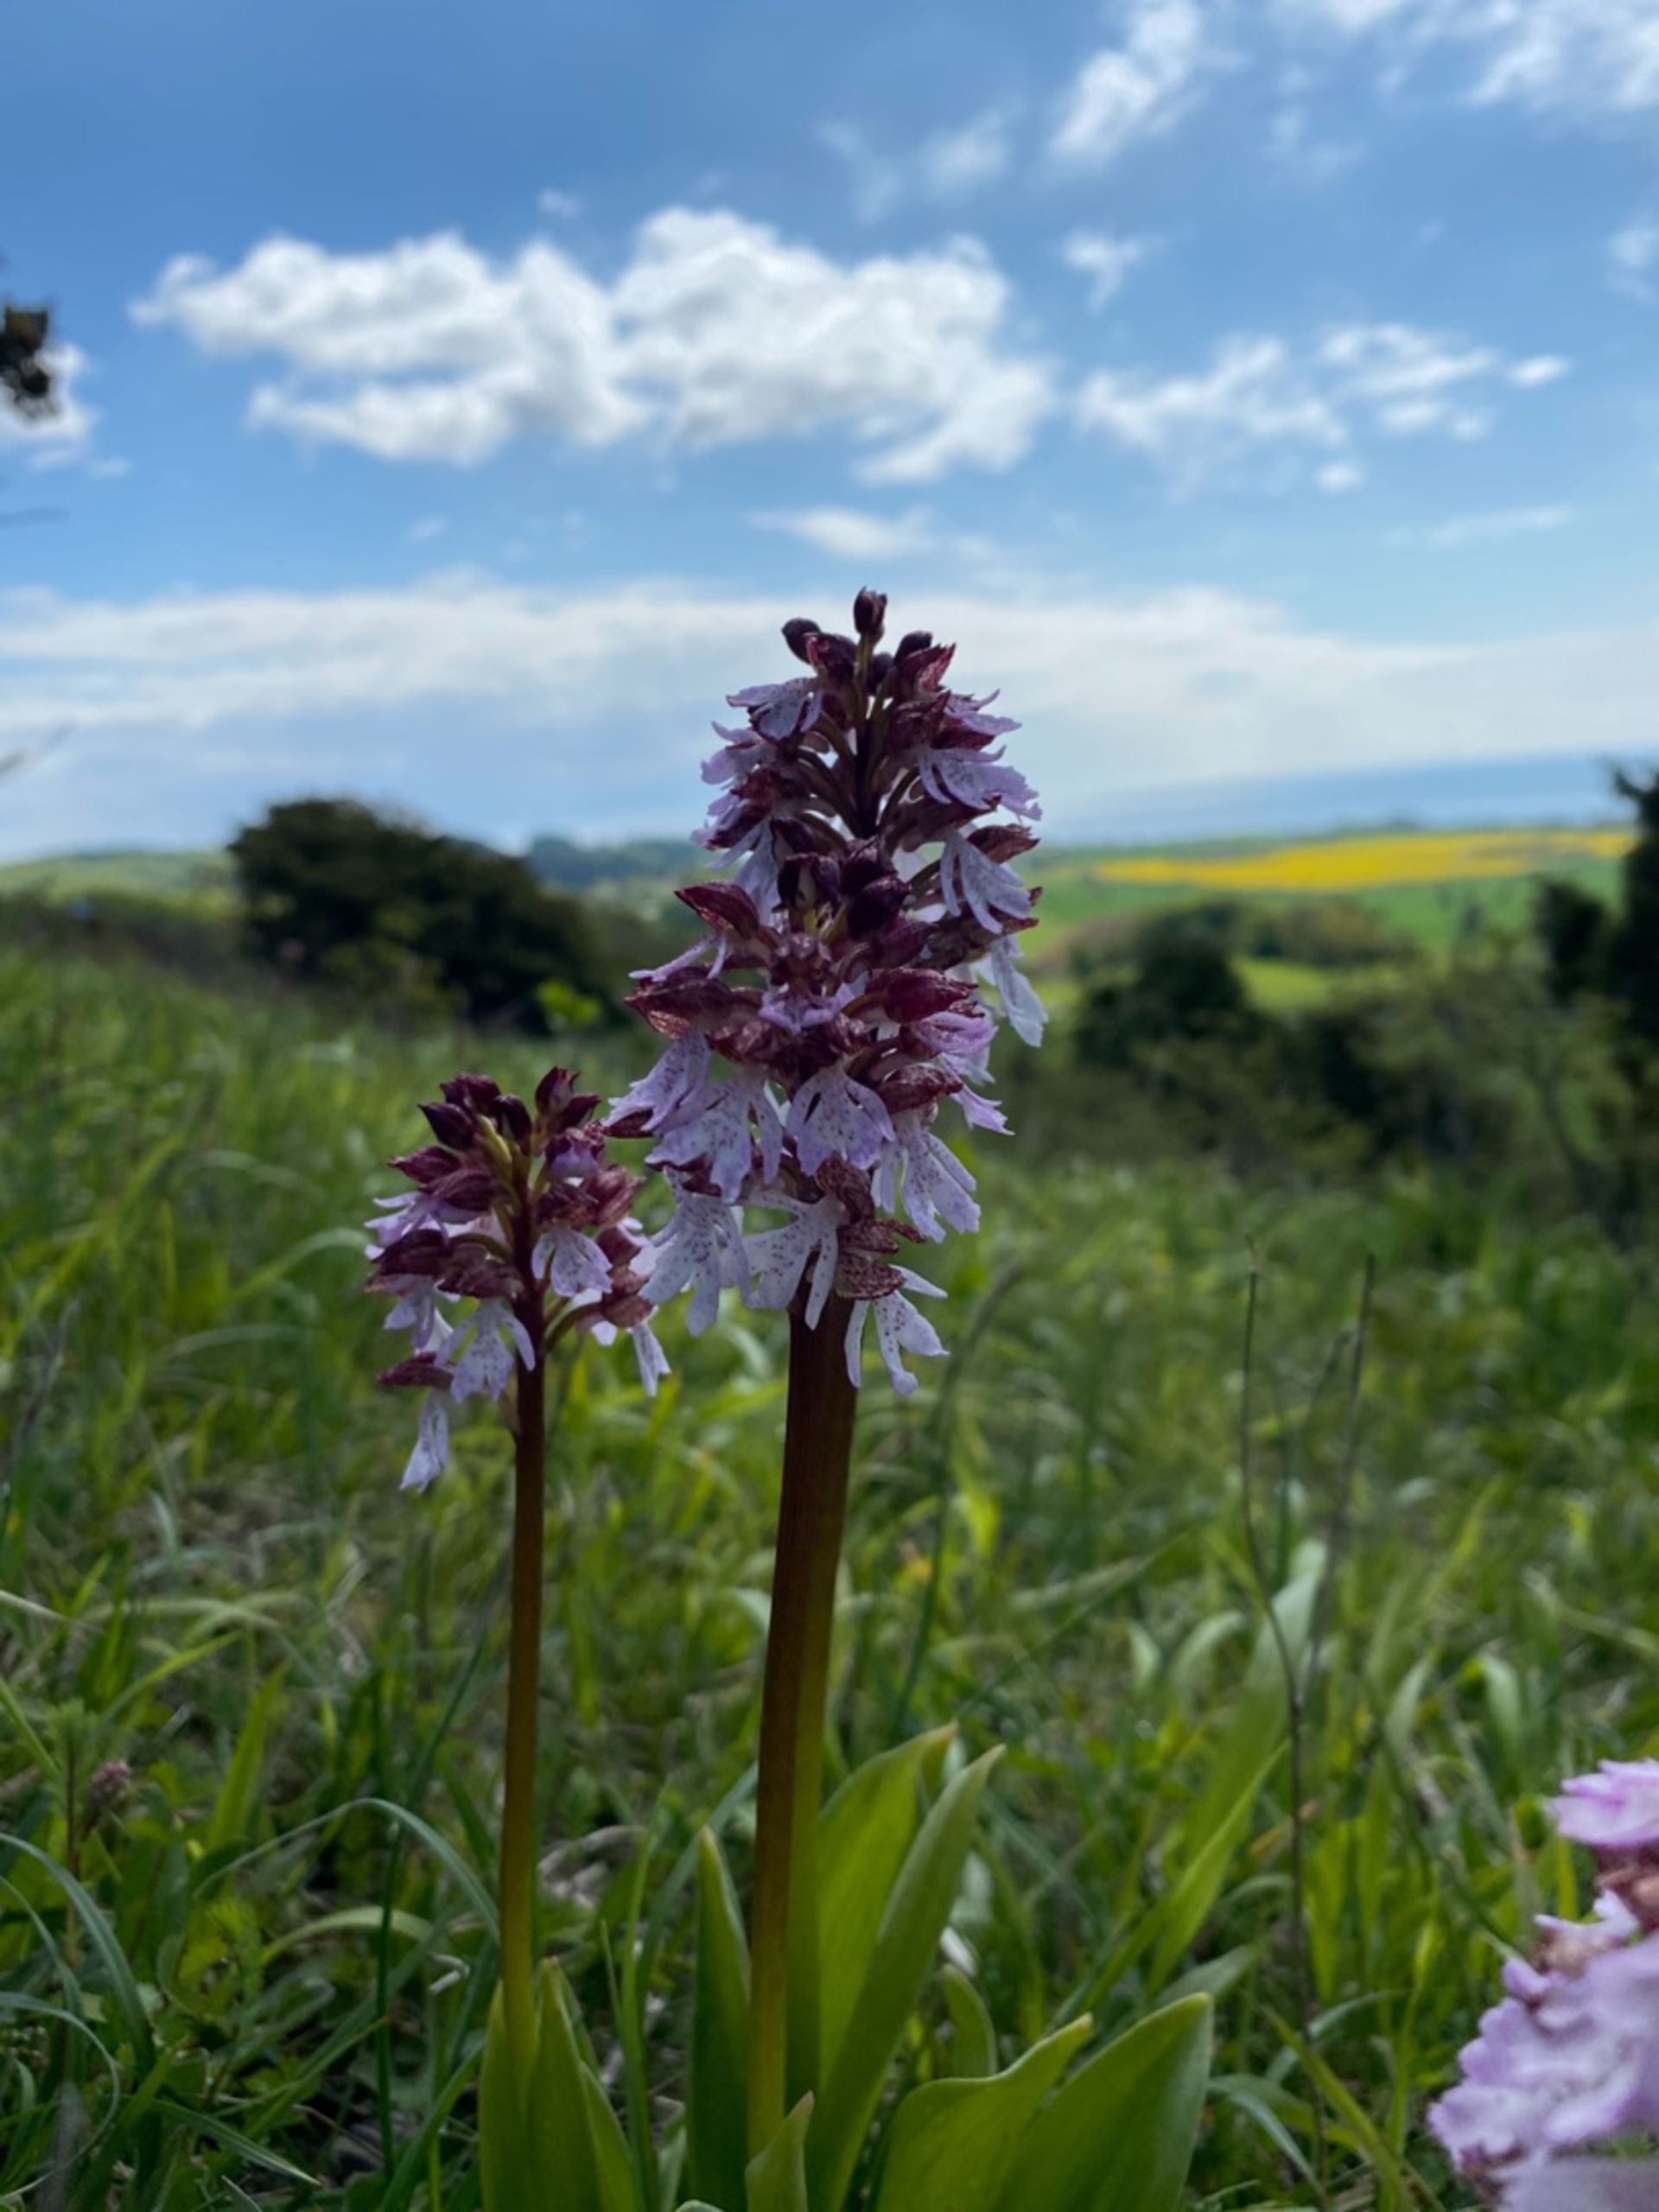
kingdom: Plantae
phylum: Tracheophyta
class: Liliopsida
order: Asparagales
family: Orchidaceae
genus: Orchis
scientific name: Orchis purpurea
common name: Stor gøgeurt
